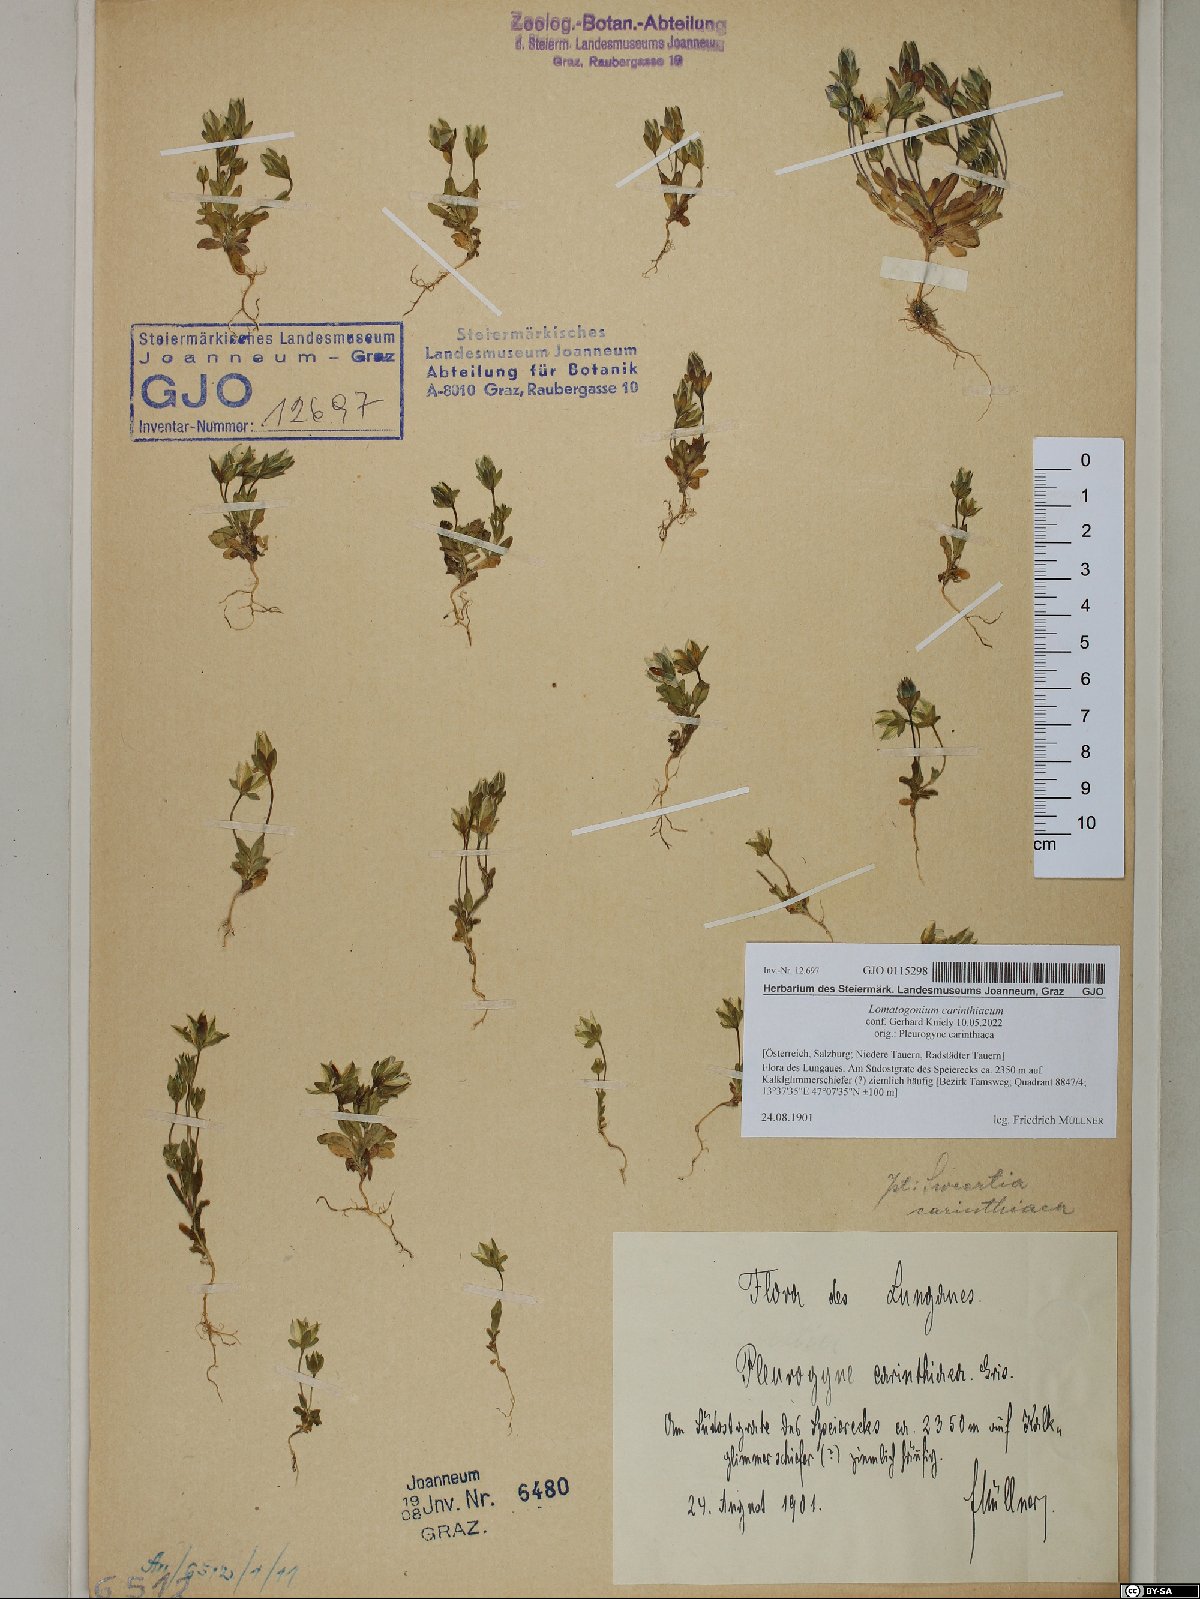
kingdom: Plantae
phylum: Tracheophyta
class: Magnoliopsida
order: Gentianales
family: Gentianaceae
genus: Lomatogonium
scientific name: Lomatogonium carinthiacum
